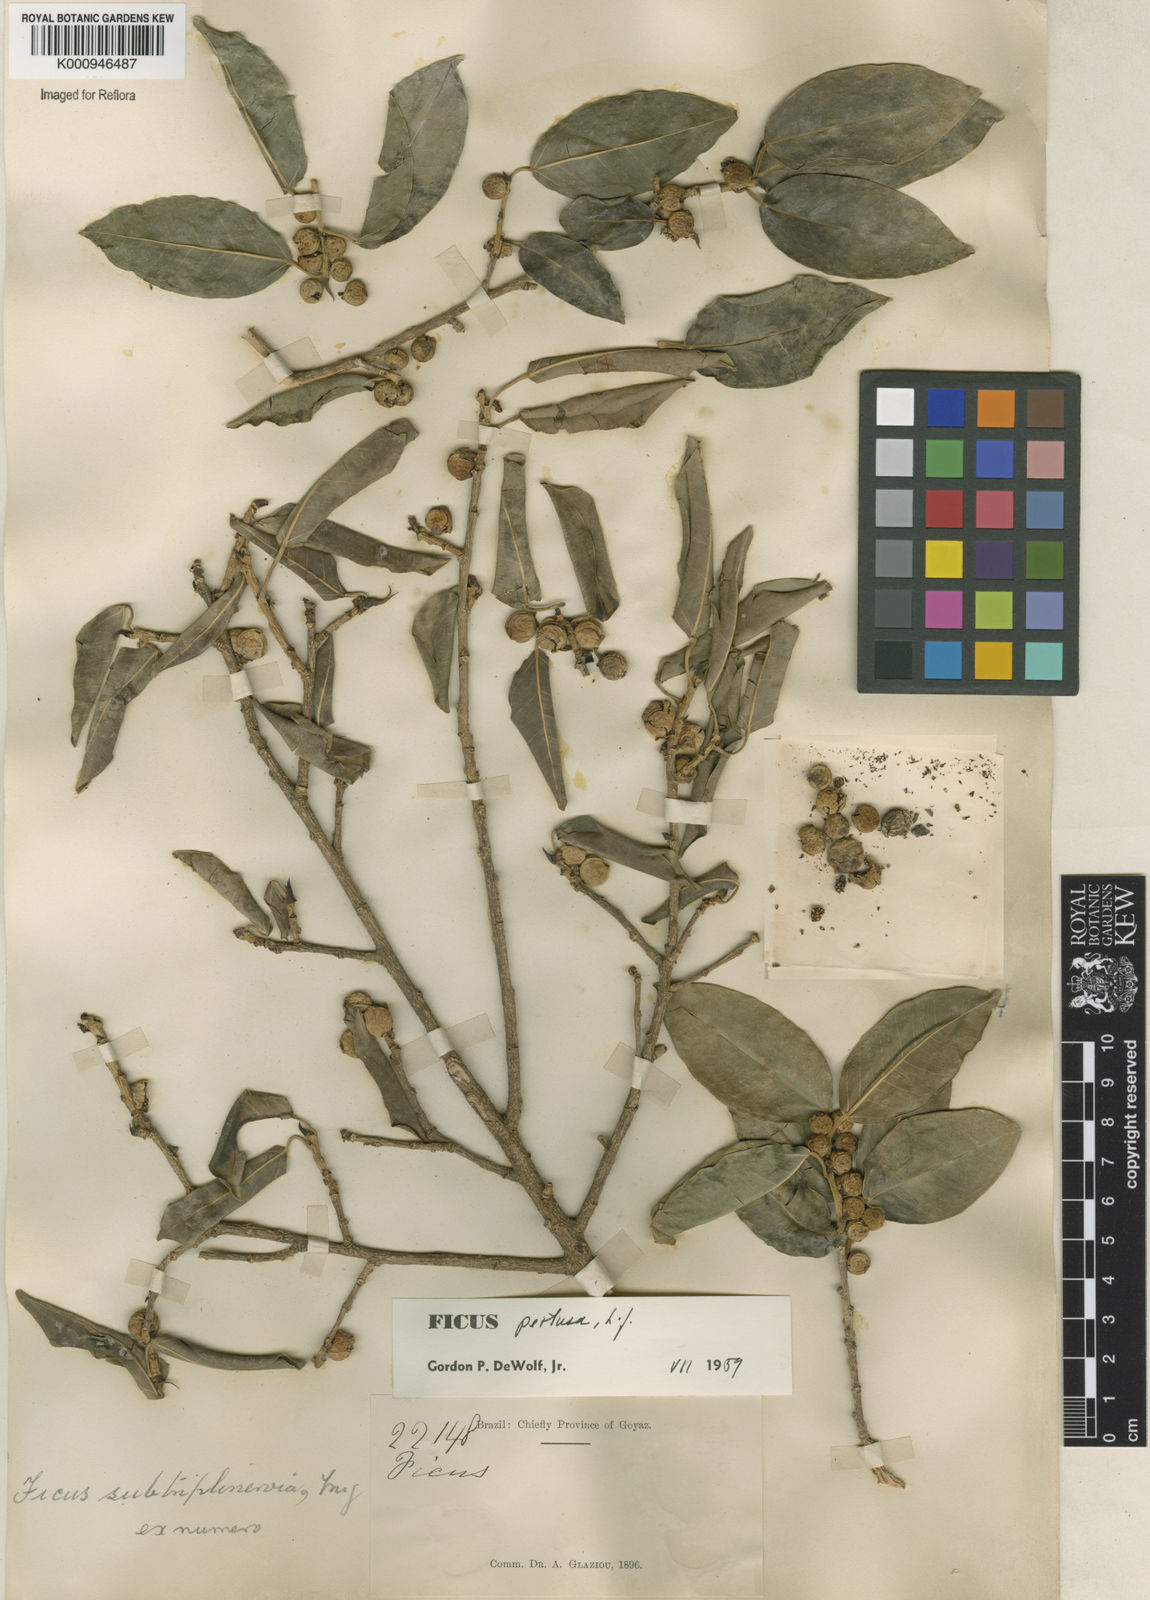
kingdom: Plantae
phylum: Tracheophyta
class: Magnoliopsida
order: Rosales
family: Moraceae
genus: Ficus
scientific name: Ficus pertusa
